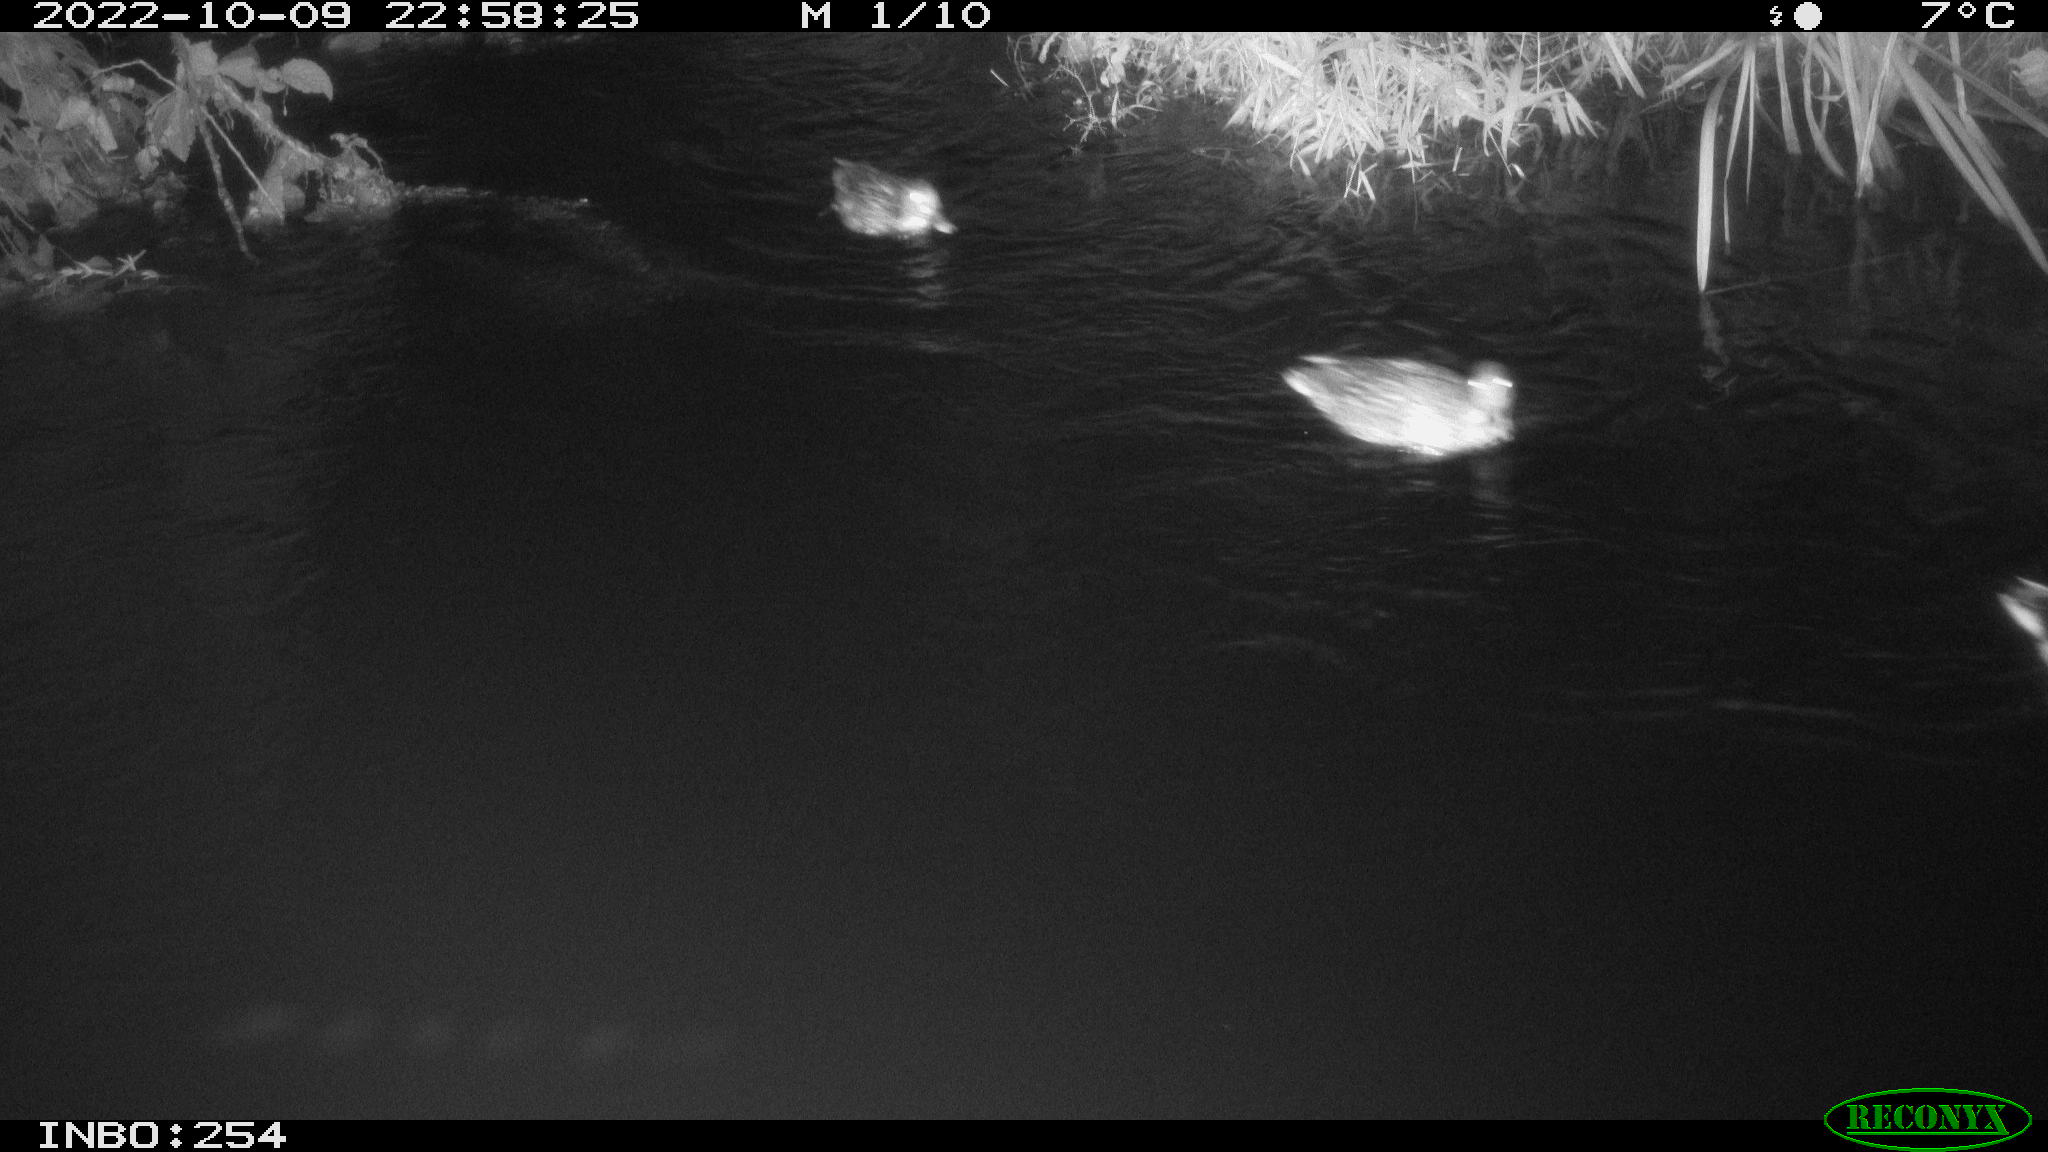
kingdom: Animalia
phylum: Chordata
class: Aves
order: Anseriformes
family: Anatidae
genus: Anas
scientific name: Anas
